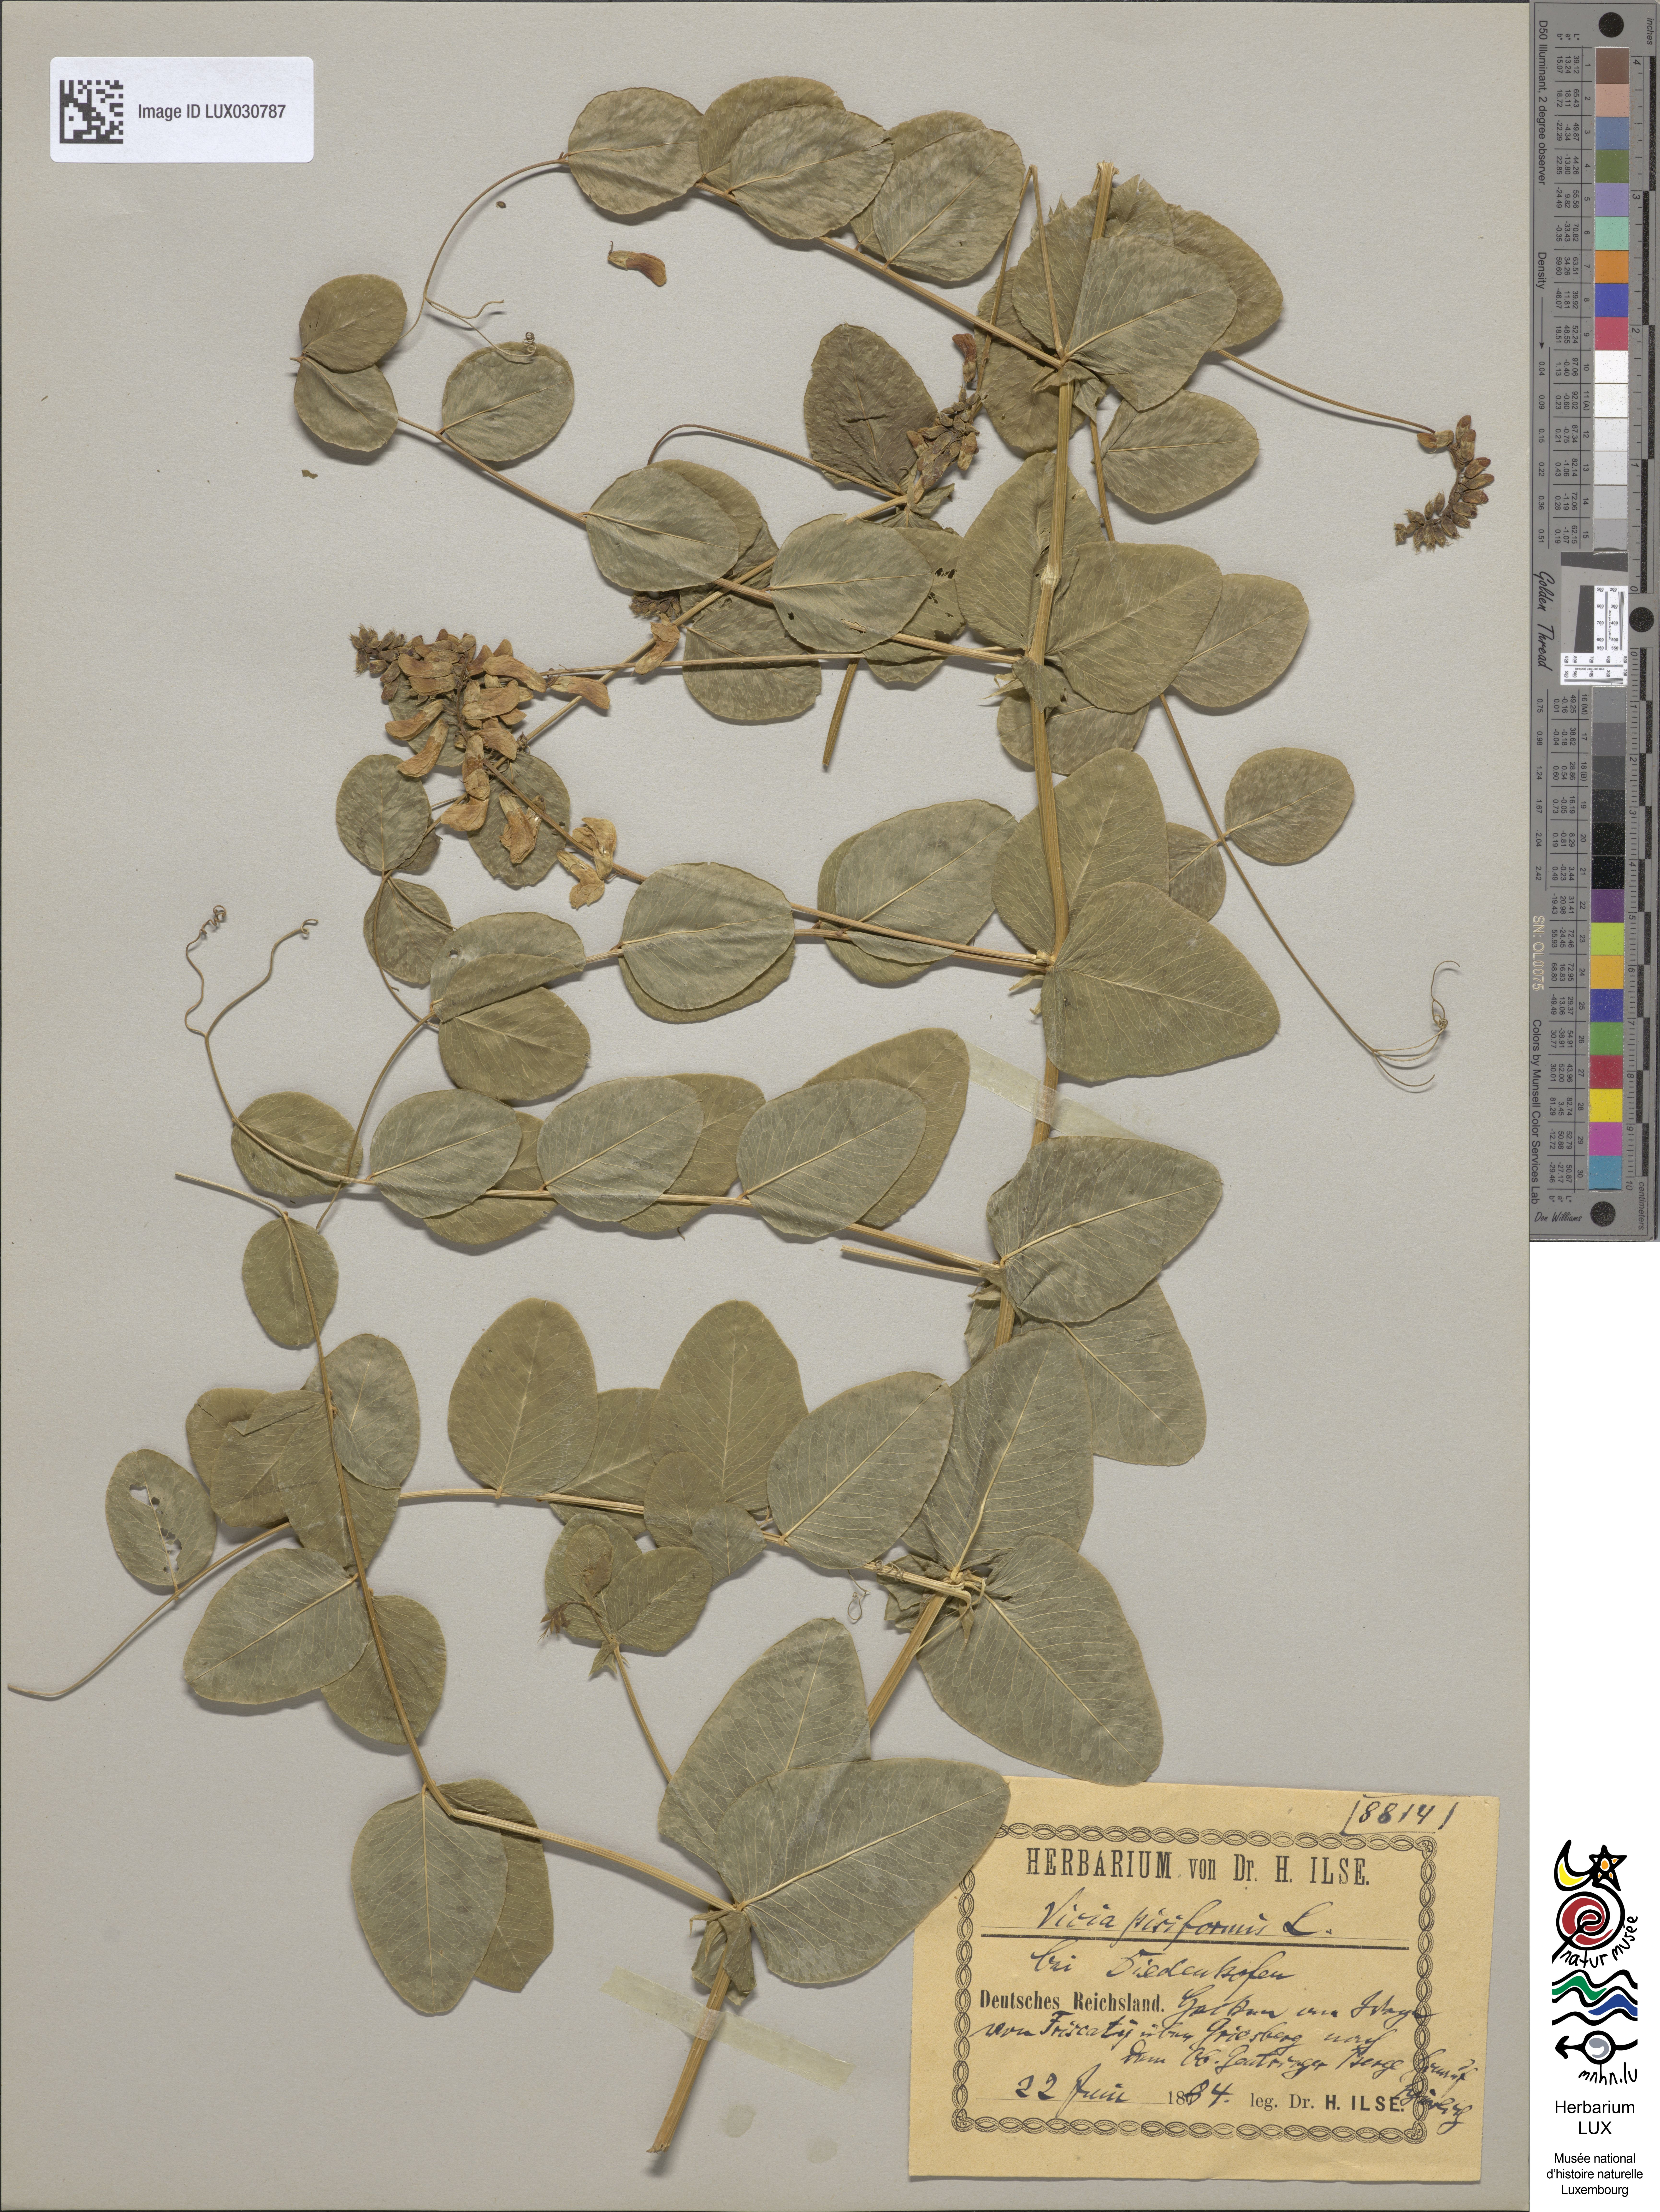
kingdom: Plantae
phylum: Tracheophyta
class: Magnoliopsida
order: Fabales
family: Fabaceae
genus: Vicia
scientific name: Vicia pisiformis
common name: Pale-flower vetch
